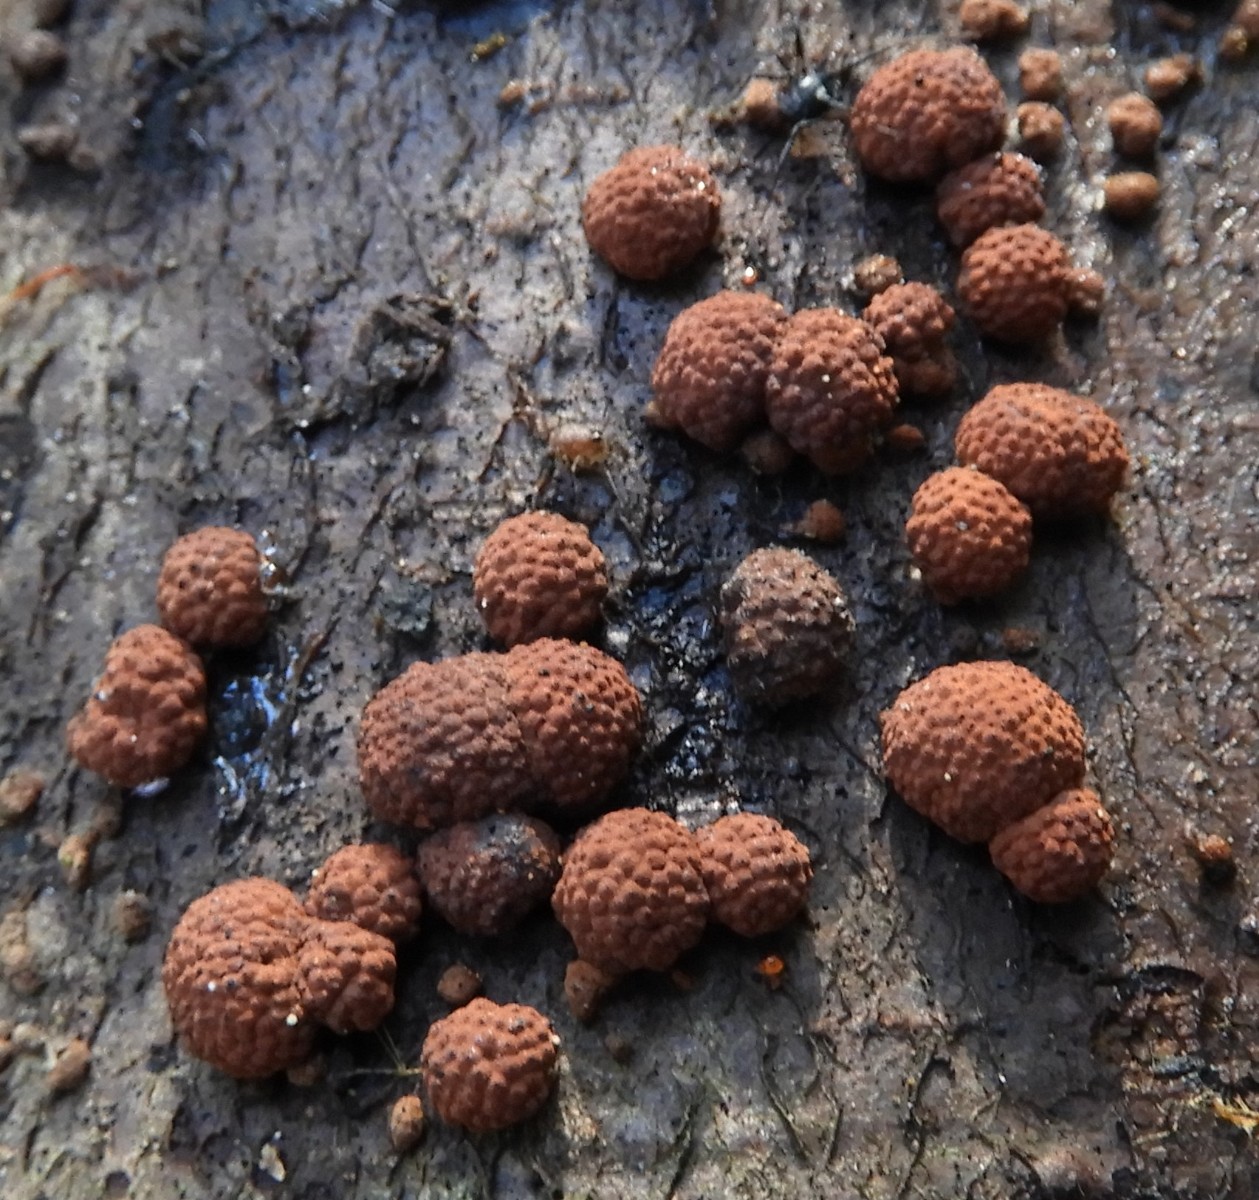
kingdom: Fungi
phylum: Ascomycota
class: Sordariomycetes
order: Xylariales
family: Hypoxylaceae
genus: Hypoxylon
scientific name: Hypoxylon fragiforme
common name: kuljordbær
